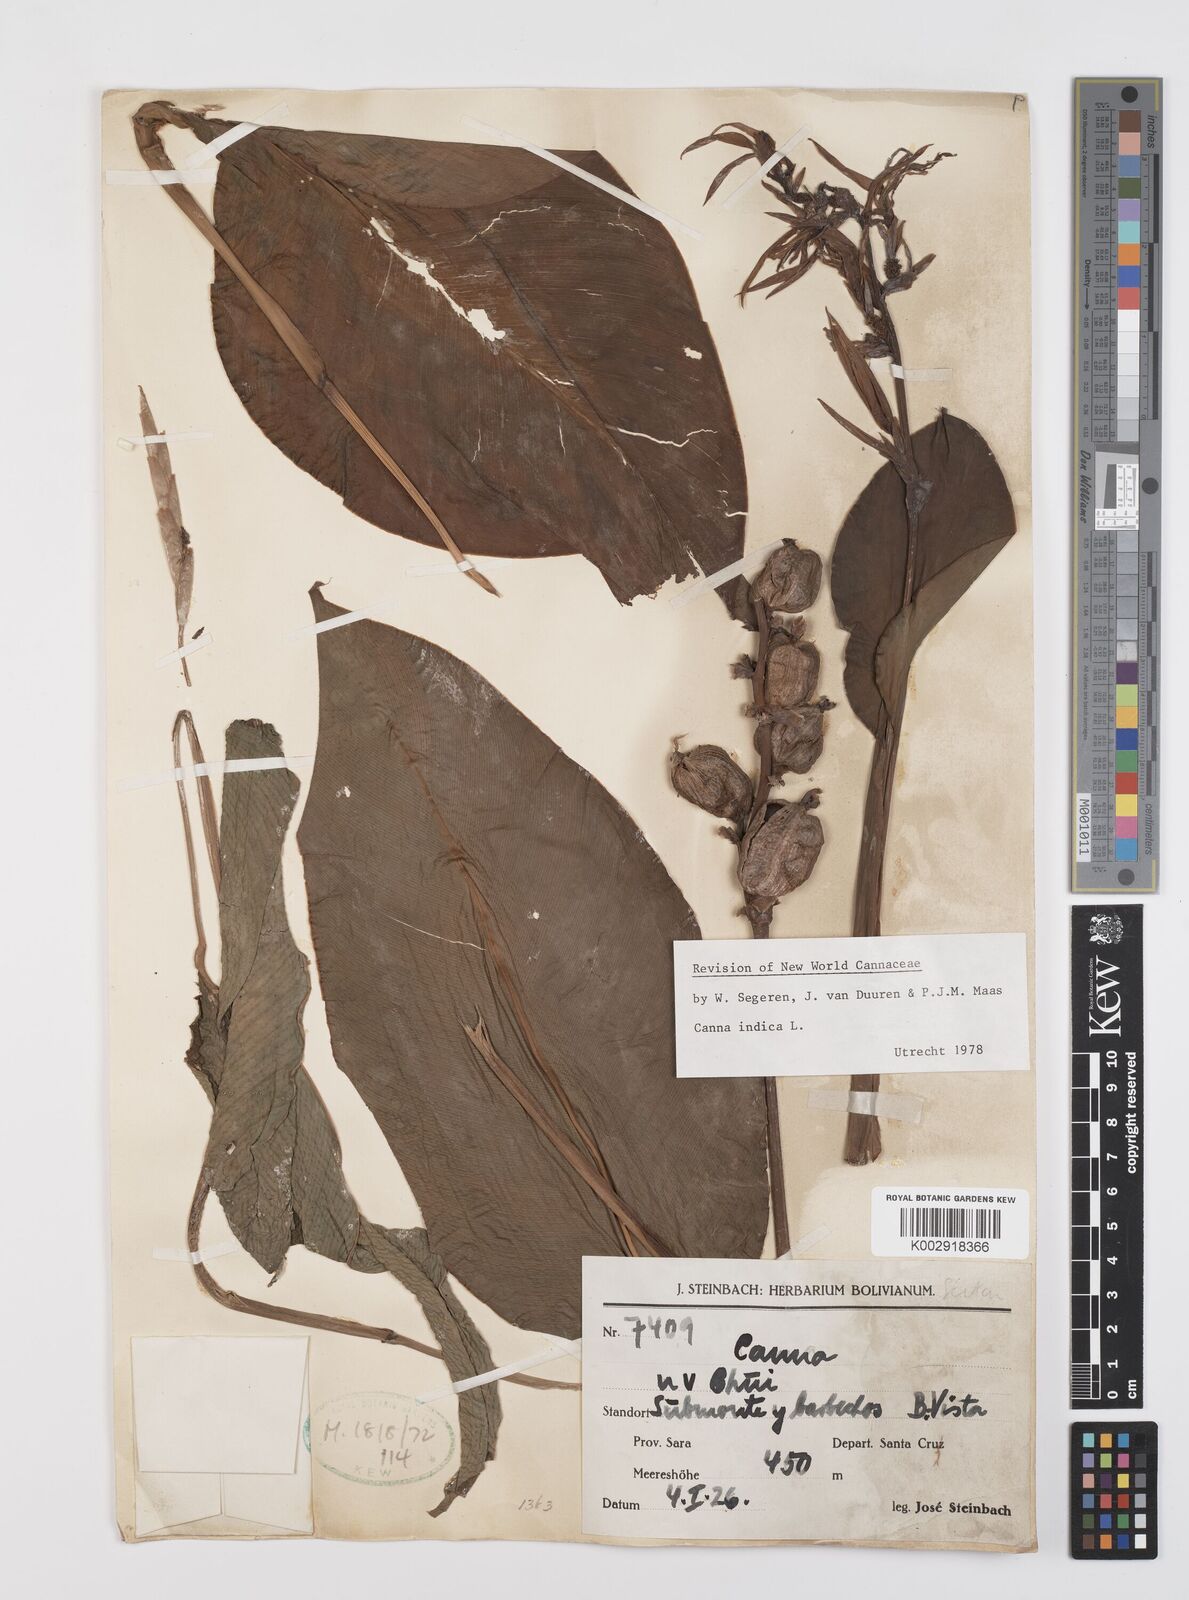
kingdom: Plantae
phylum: Tracheophyta
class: Liliopsida
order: Zingiberales
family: Cannaceae
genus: Canna
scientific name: Canna indica
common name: Indian shot
